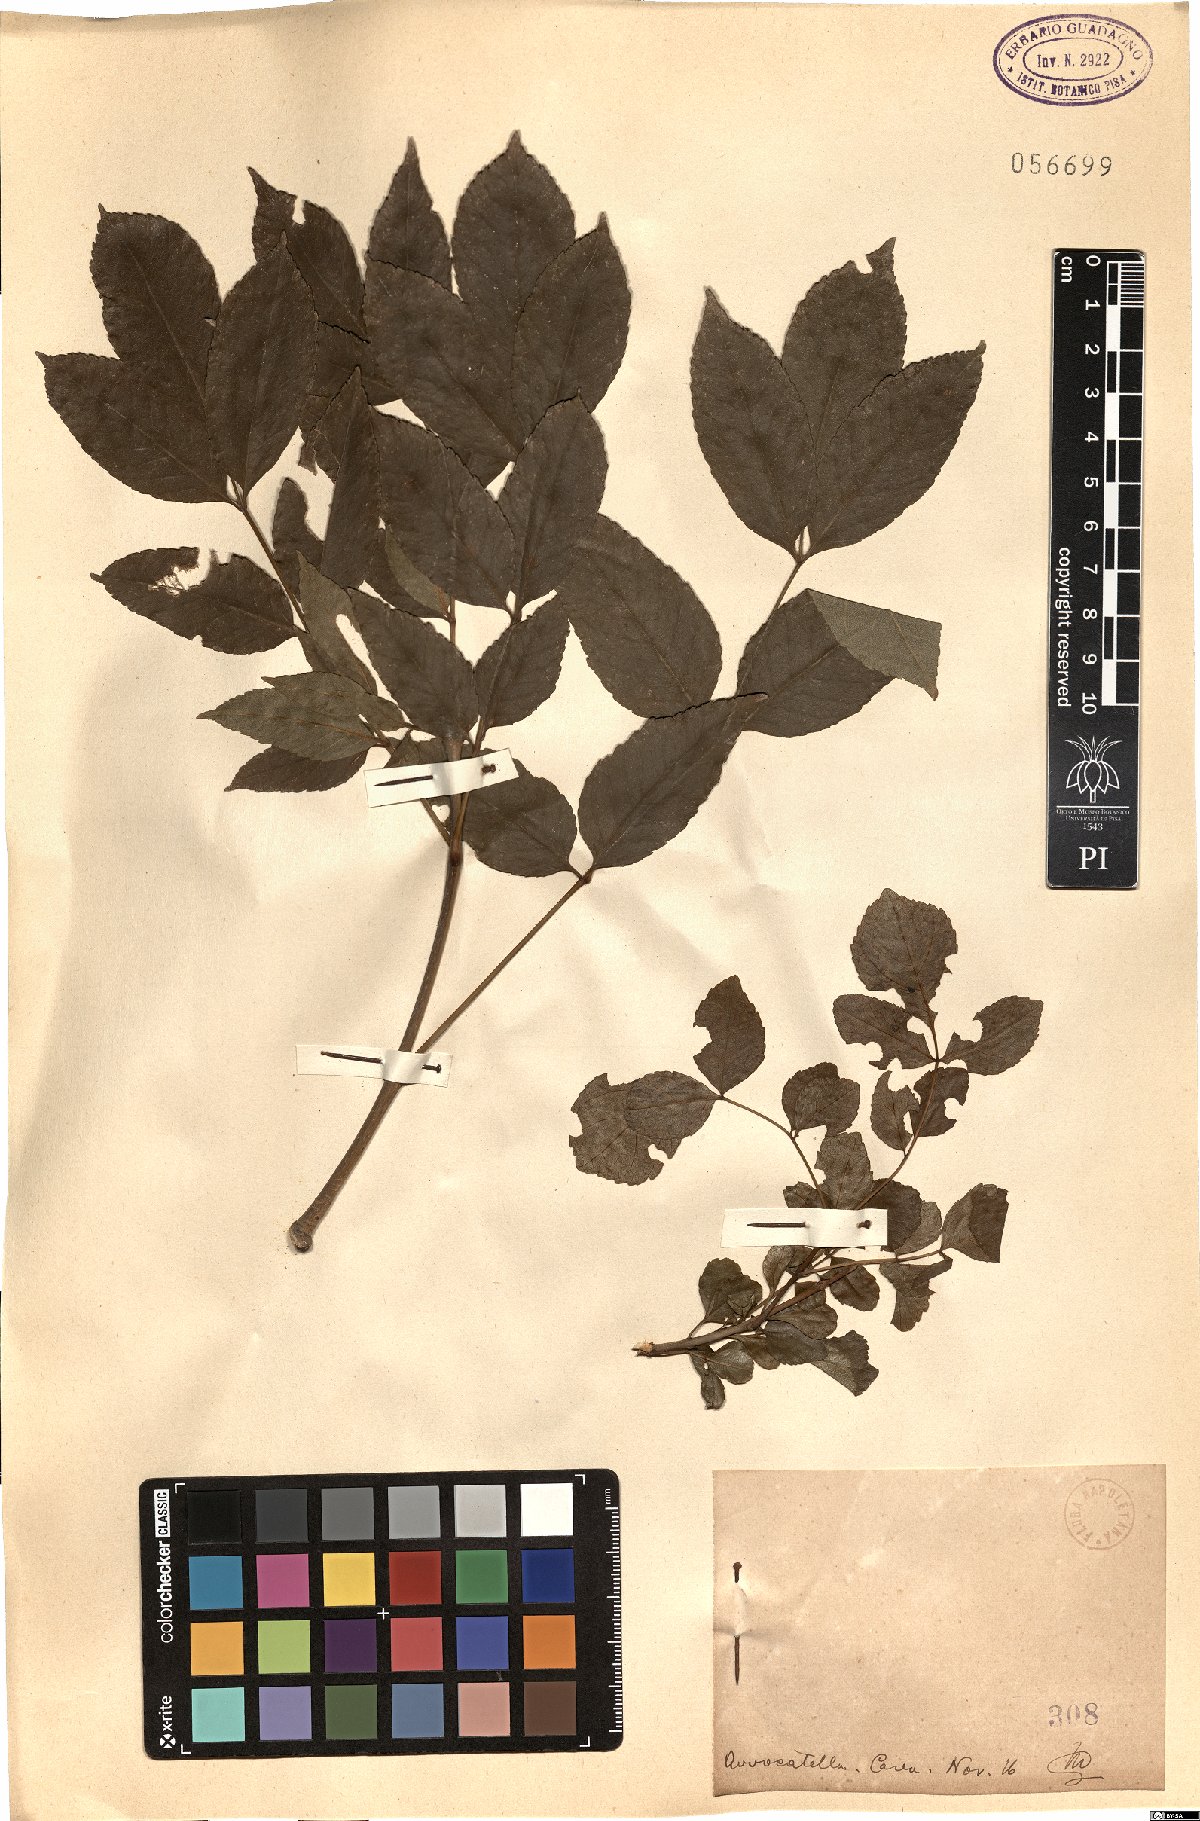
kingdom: Plantae
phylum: Tracheophyta
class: Magnoliopsida
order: Lamiales
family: Oleaceae
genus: Fraxinus
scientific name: Fraxinus
